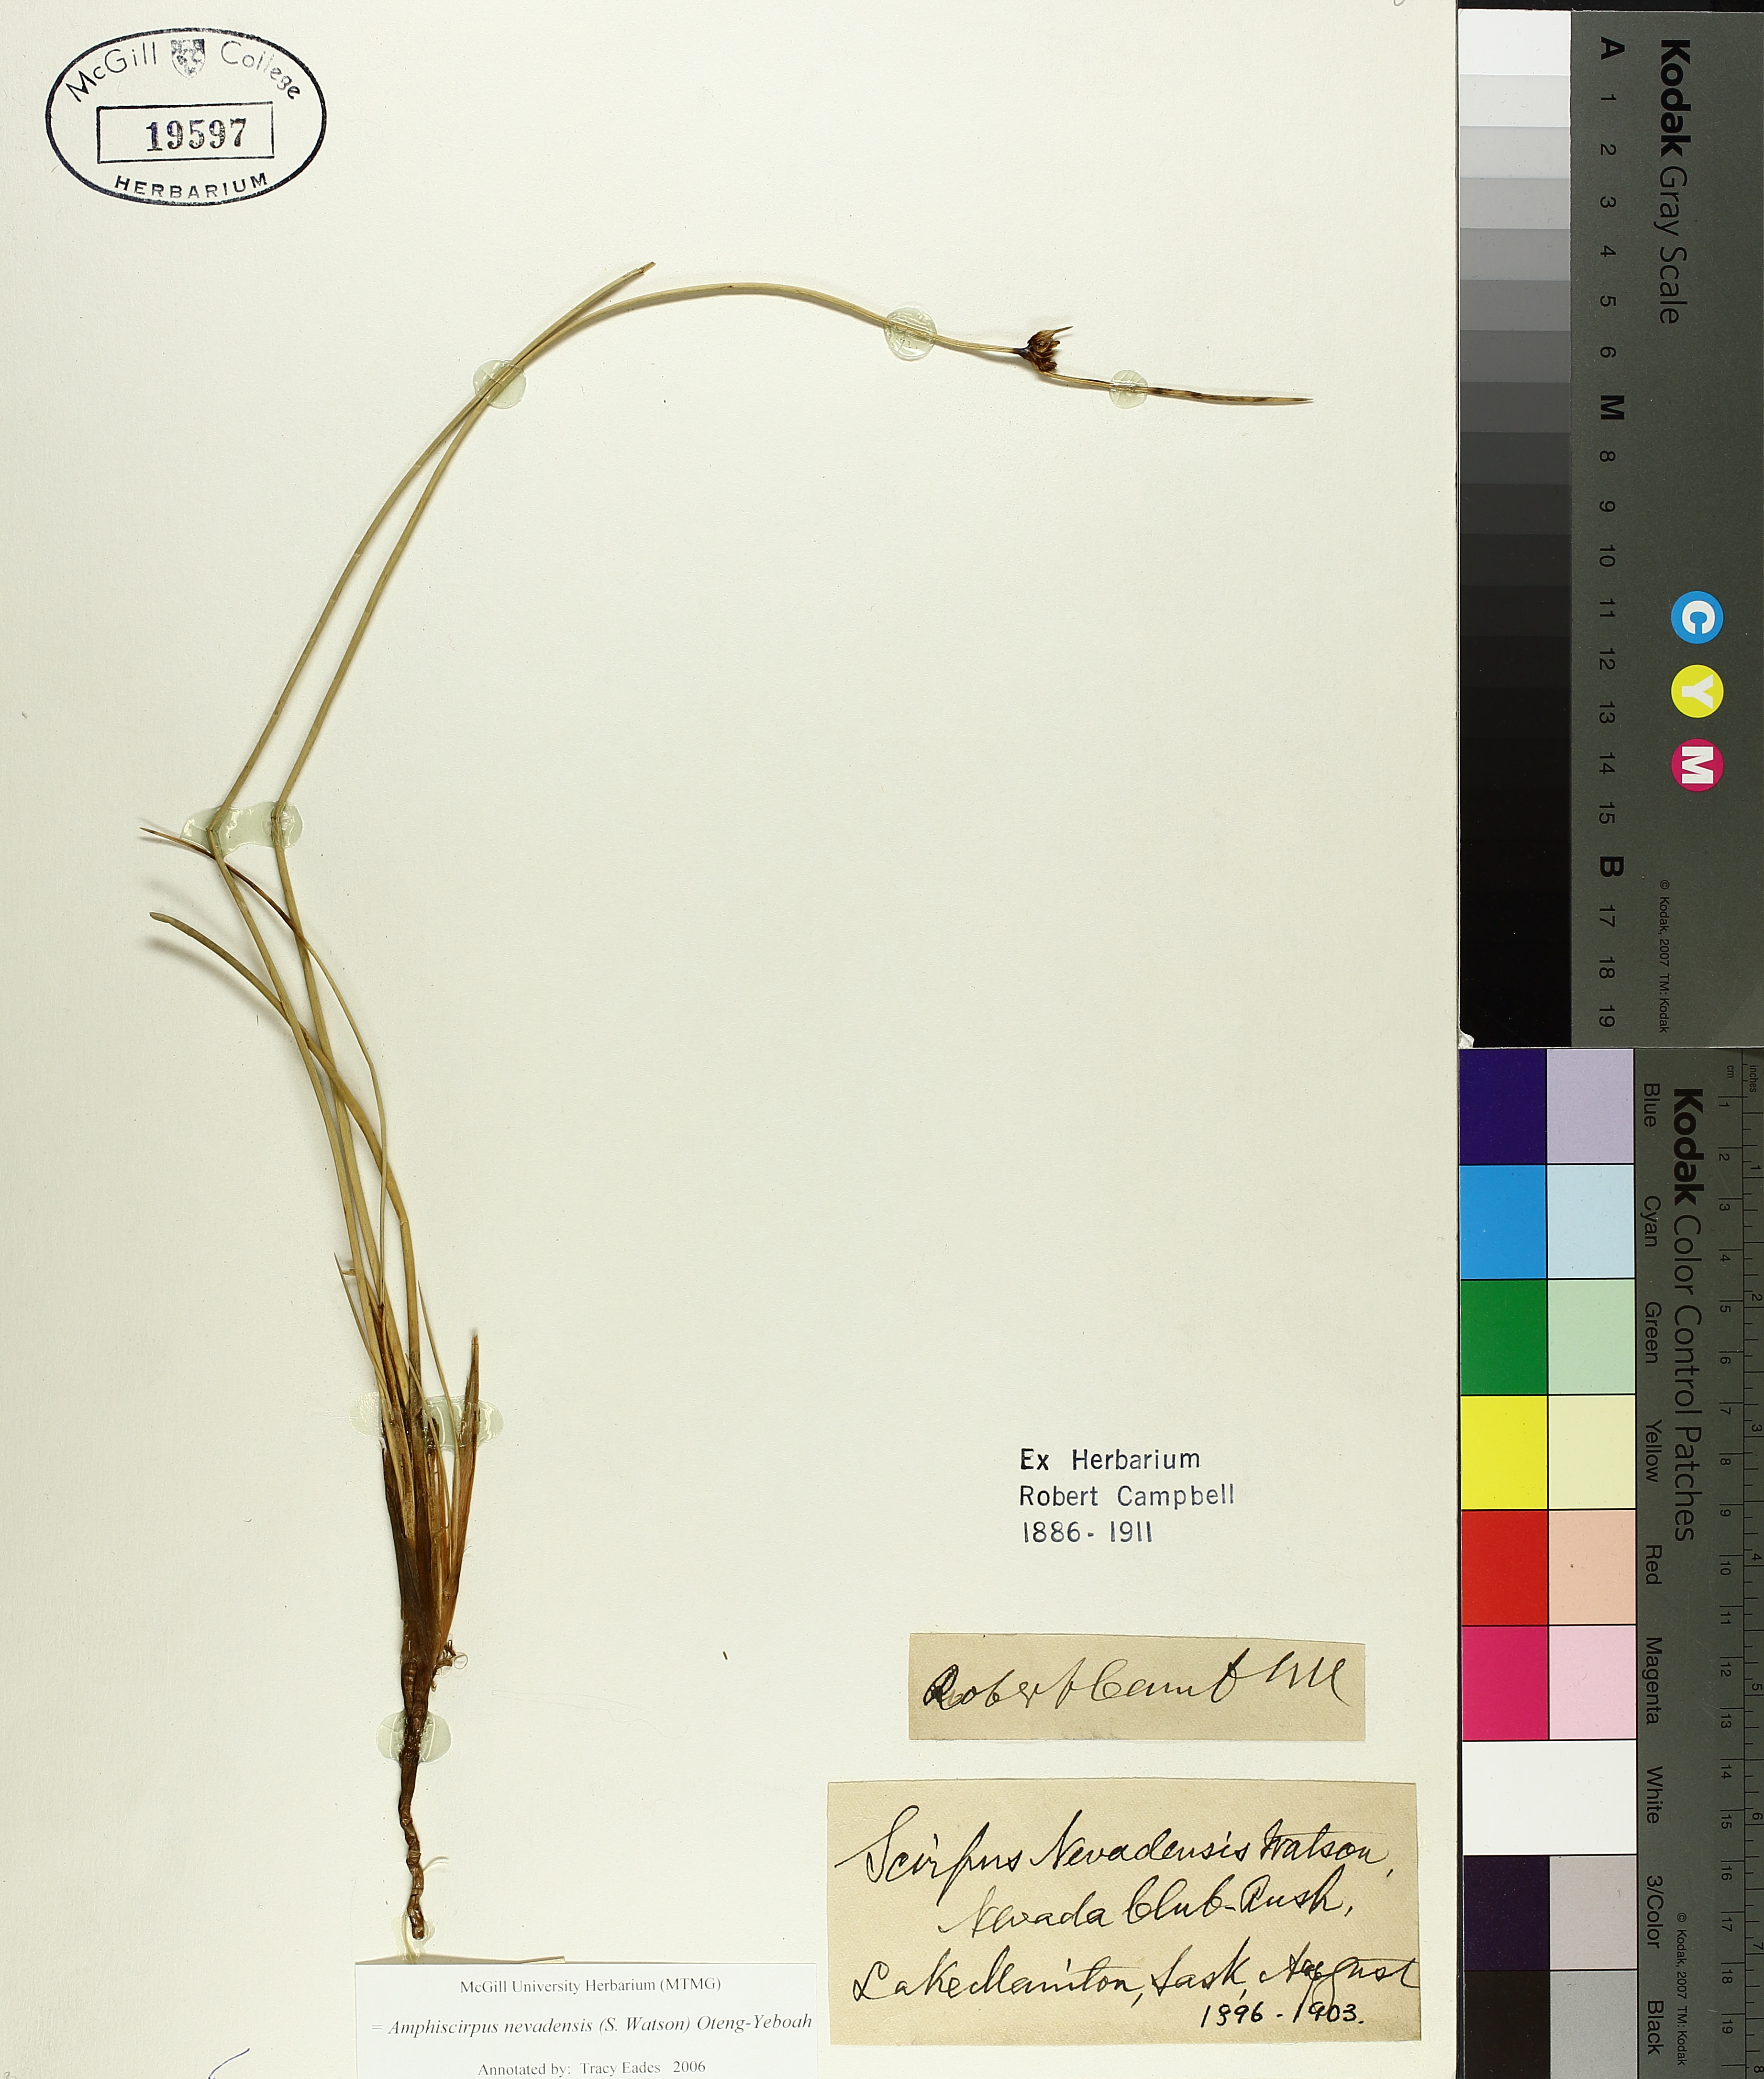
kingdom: Plantae
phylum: Tracheophyta
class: Liliopsida
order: Poales
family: Cyperaceae
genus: Amphiscirpus
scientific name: Amphiscirpus nevadensis
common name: Nevada bulrush
